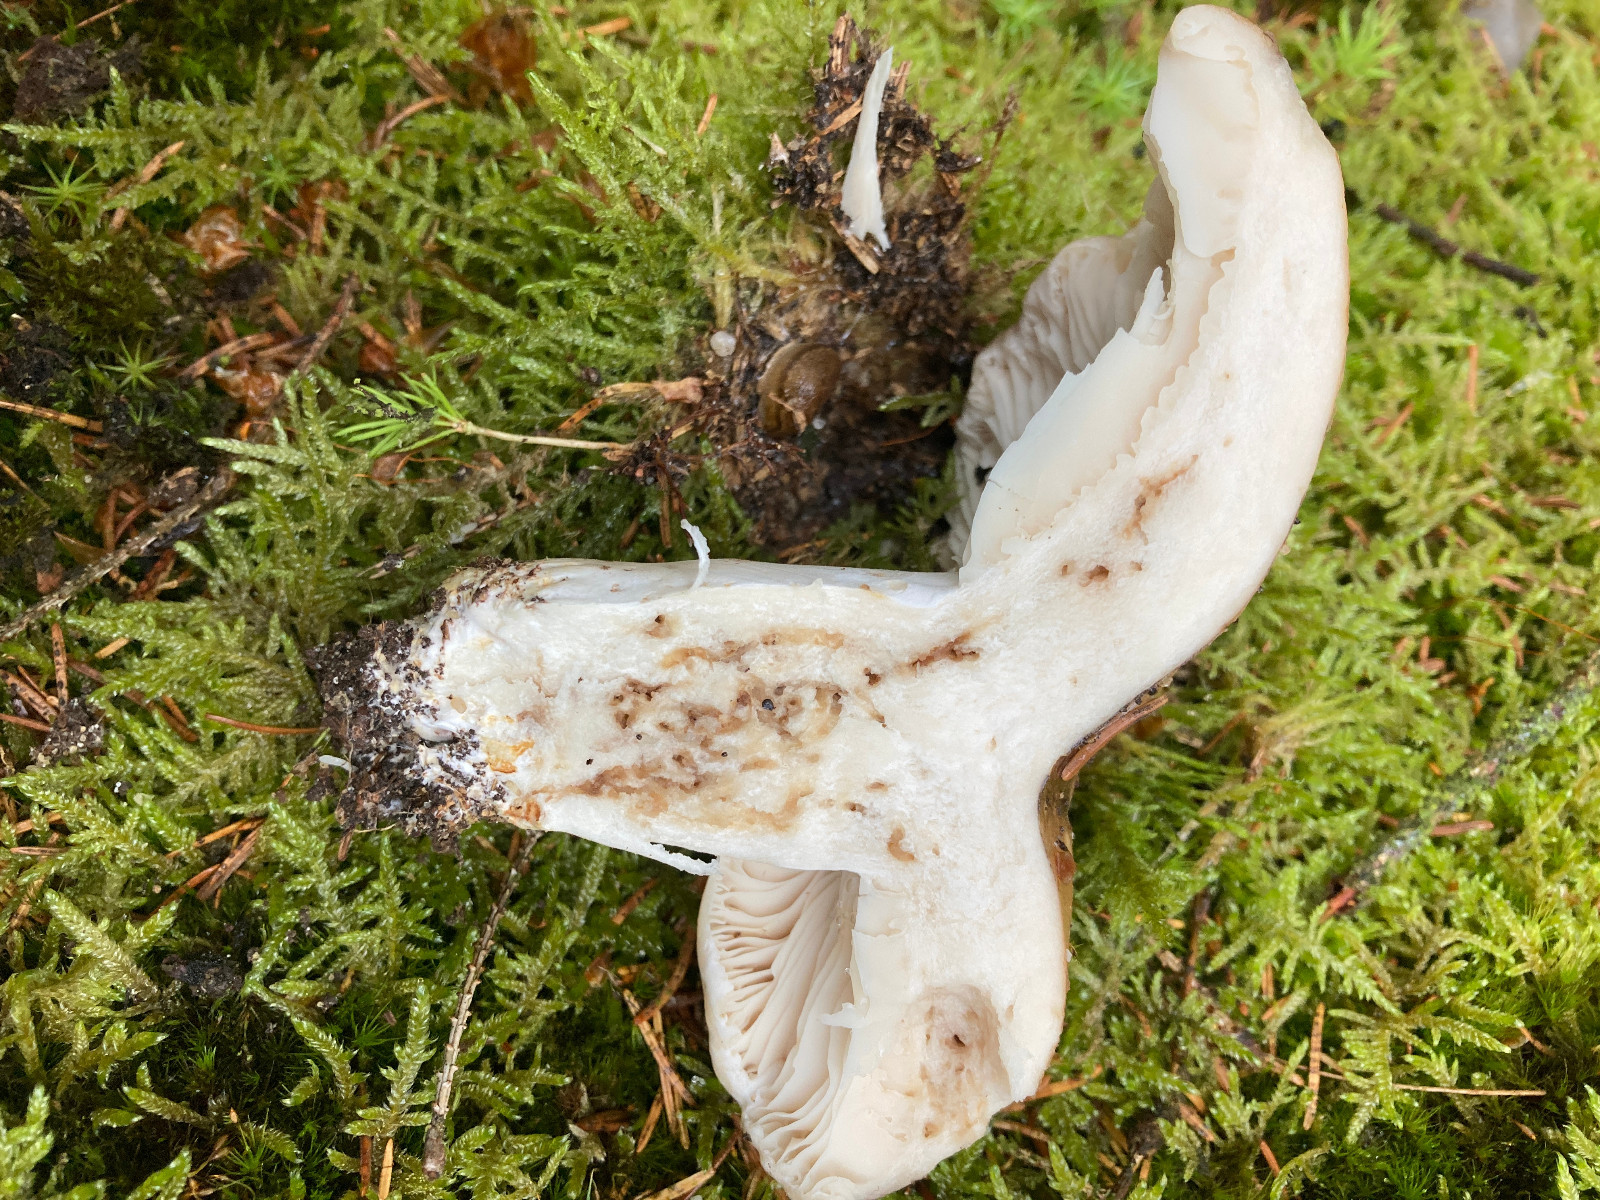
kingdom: Fungi
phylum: Basidiomycota
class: Agaricomycetes
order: Russulales
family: Russulaceae
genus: Russula
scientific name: Russula adusta
